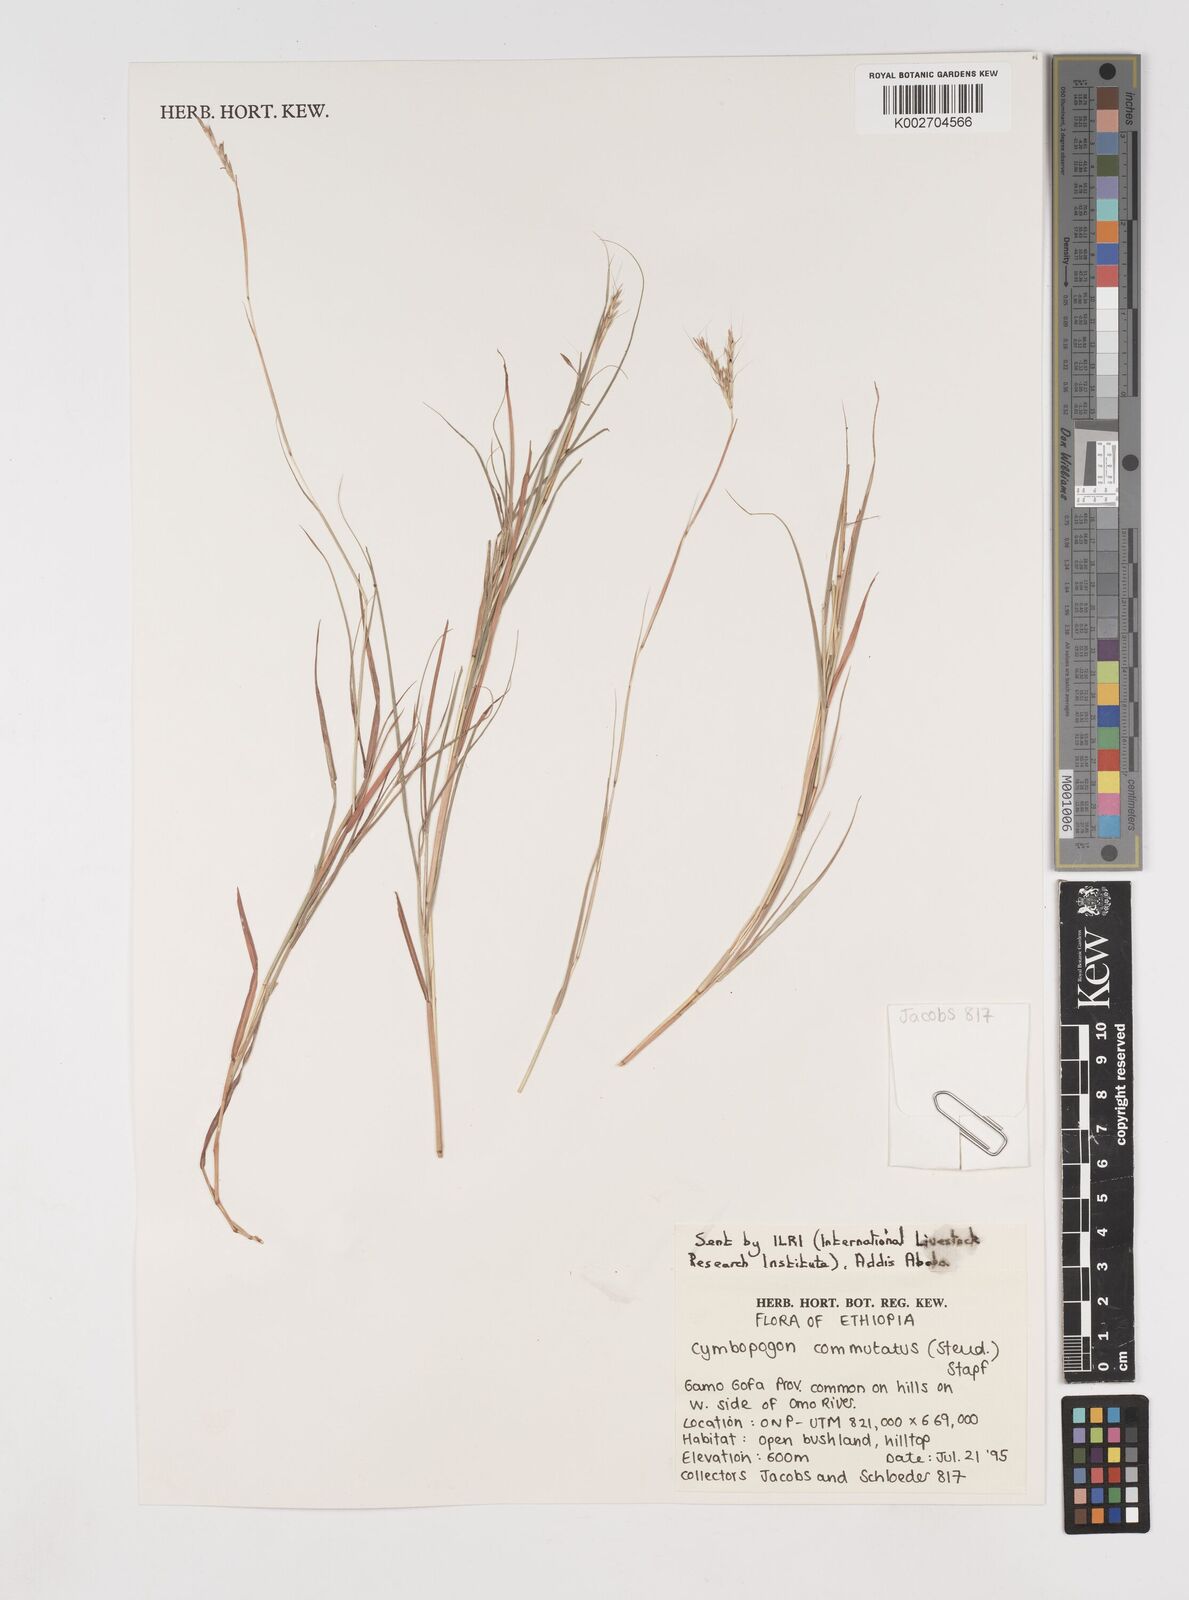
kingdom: Plantae
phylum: Tracheophyta
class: Liliopsida
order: Poales
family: Poaceae
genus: Cymbopogon
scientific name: Cymbopogon commutatus
